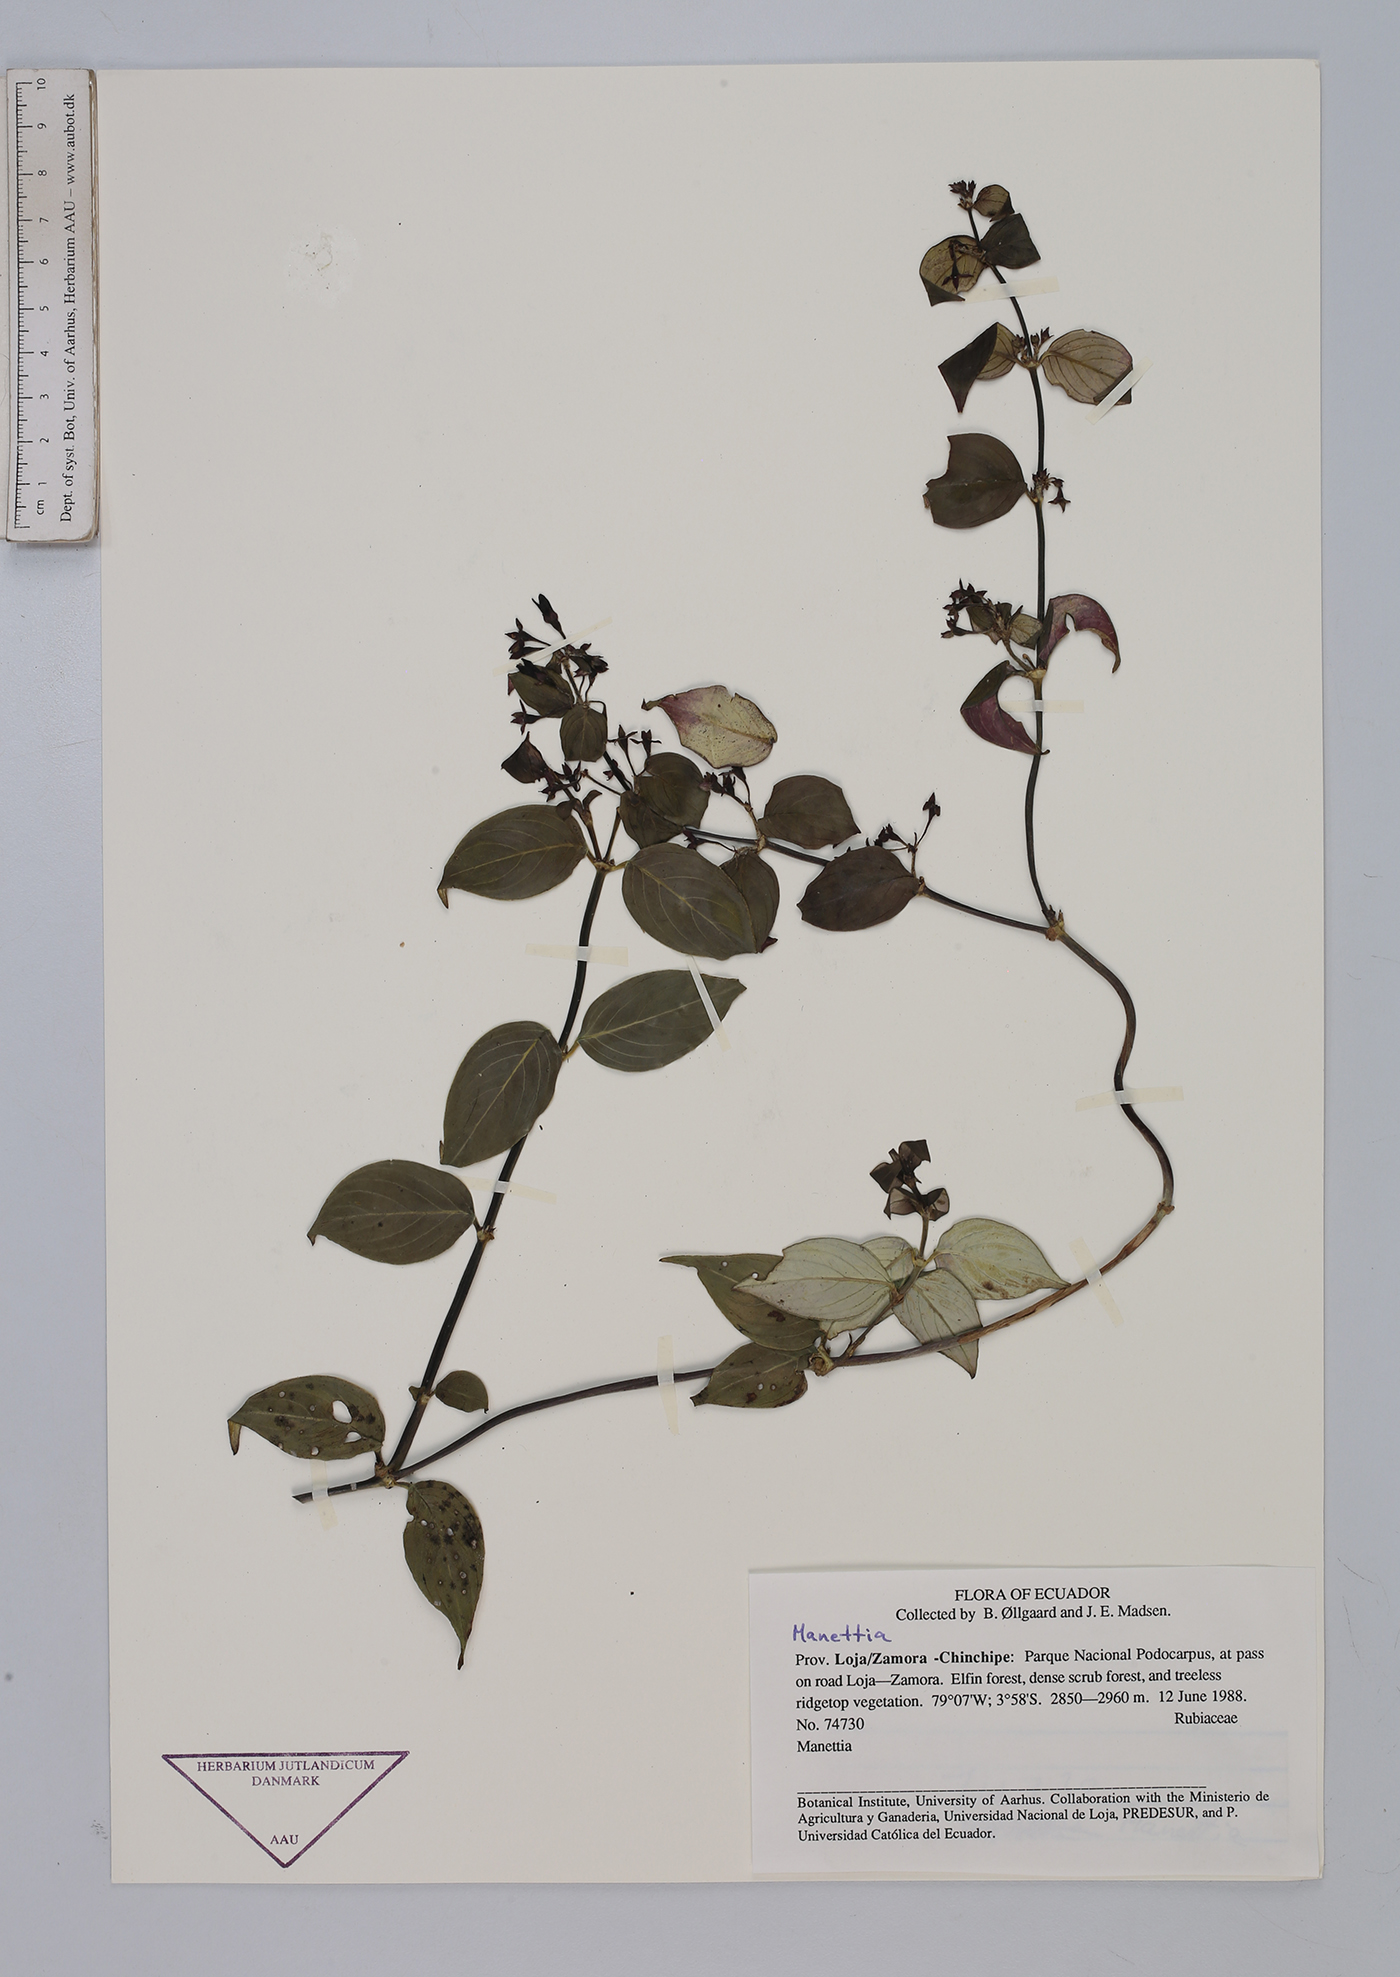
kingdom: Plantae
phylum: Tracheophyta
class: Magnoliopsida
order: Gentianales
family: Rubiaceae
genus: Manettia
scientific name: Manettia
